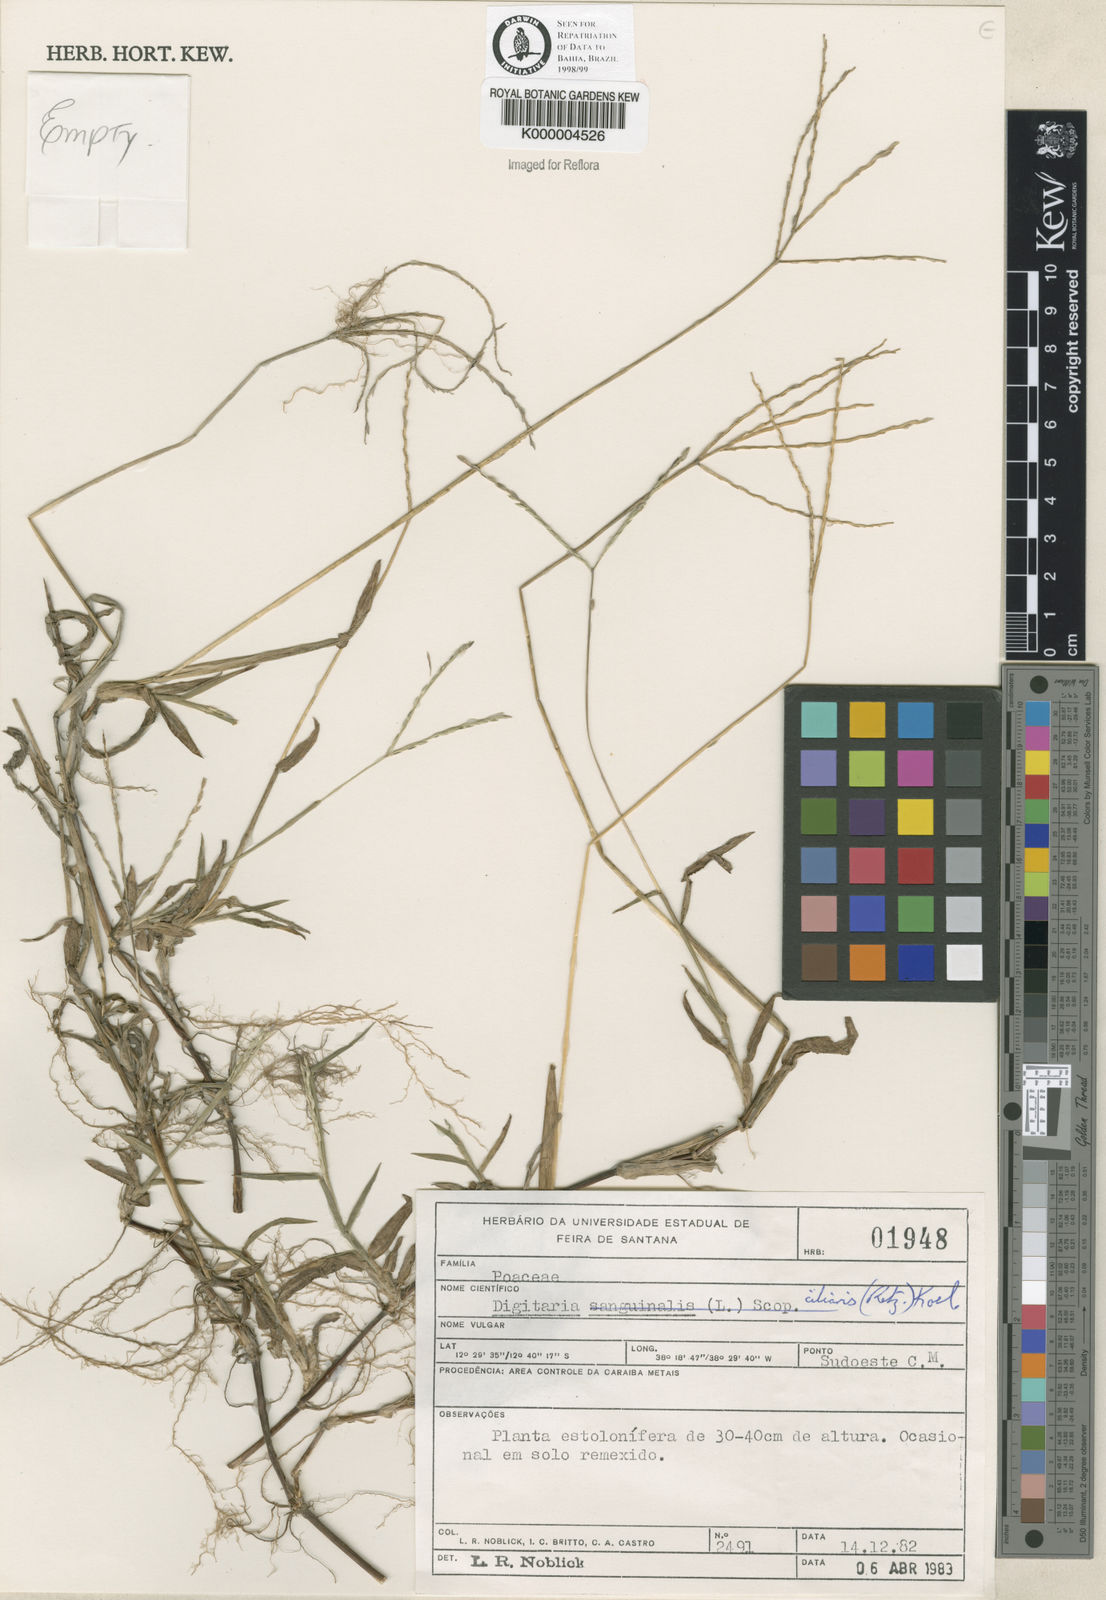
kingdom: Plantae
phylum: Tracheophyta
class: Liliopsida
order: Poales
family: Poaceae
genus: Digitaria
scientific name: Digitaria ciliaris
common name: Tropical finger-grass
